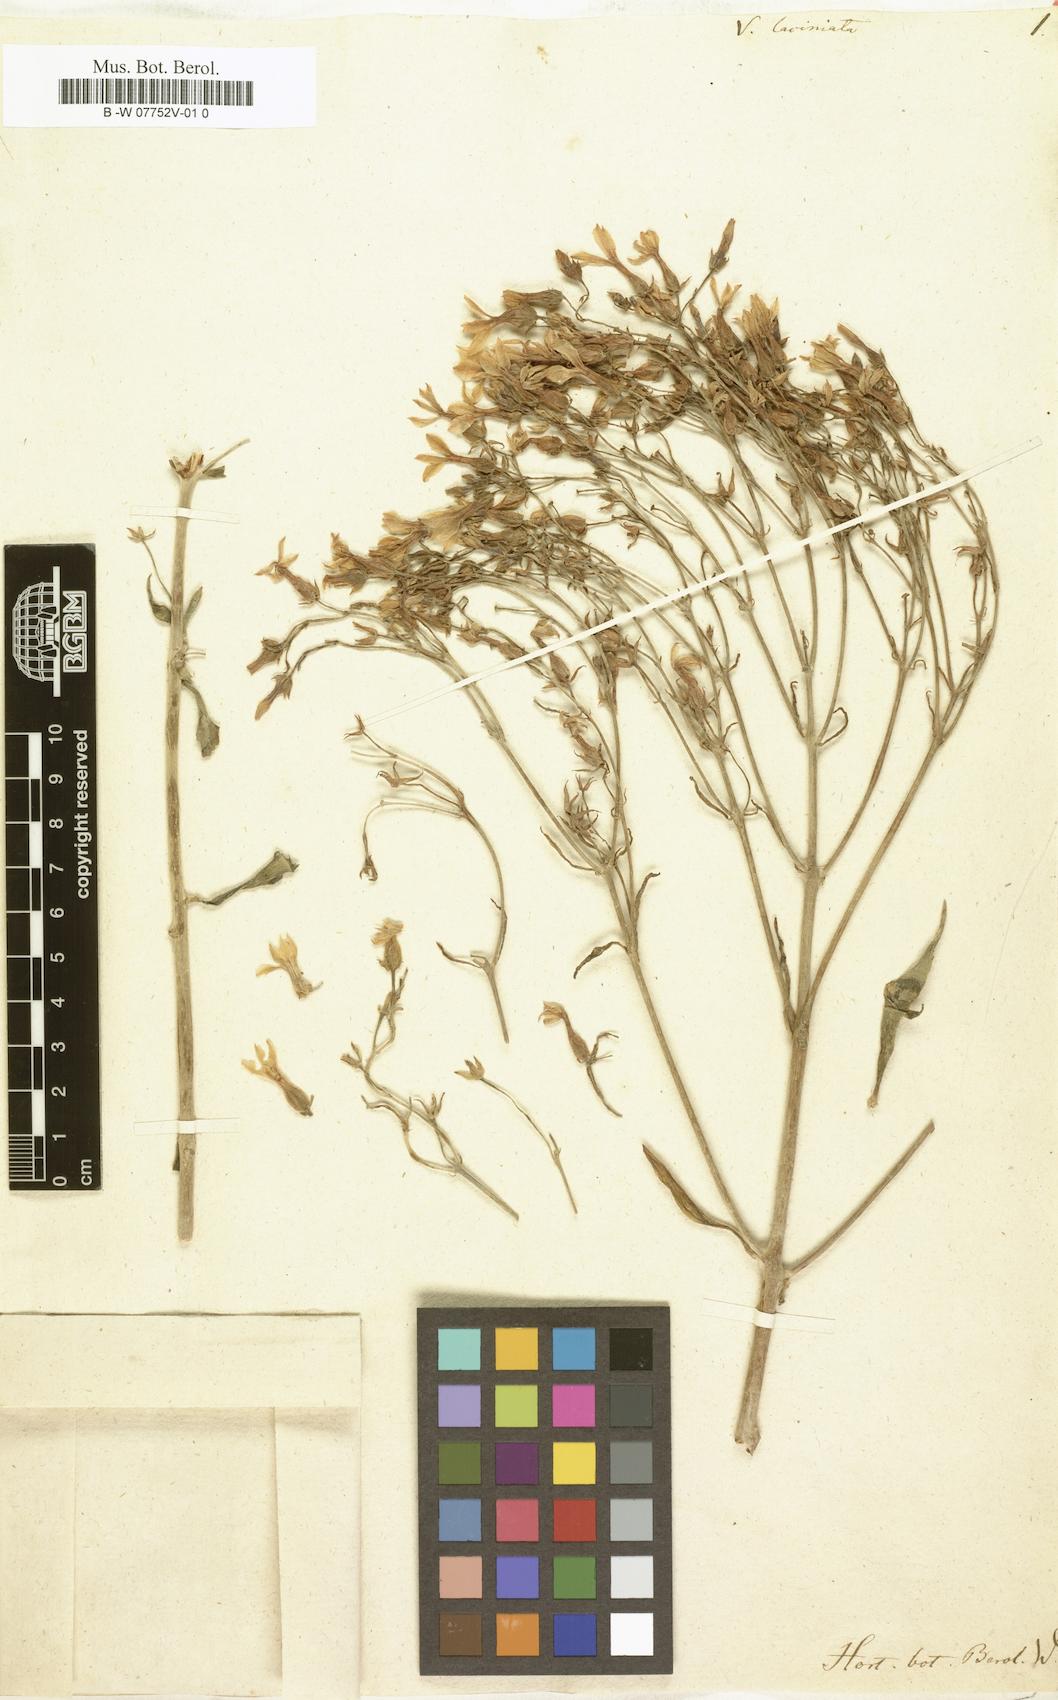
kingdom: Plantae
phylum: Tracheophyta
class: Magnoliopsida
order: Saxifragales
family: Crassulaceae
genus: Kalanchoe
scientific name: Kalanchoe laciniata
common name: Christmastree plant
